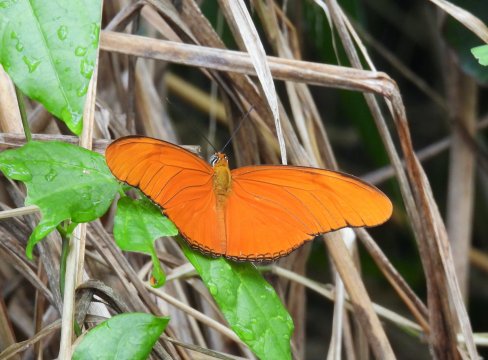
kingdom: Animalia
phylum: Arthropoda
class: Insecta
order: Lepidoptera
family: Nymphalidae
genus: Dryas
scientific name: Dryas iulia
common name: Julia
